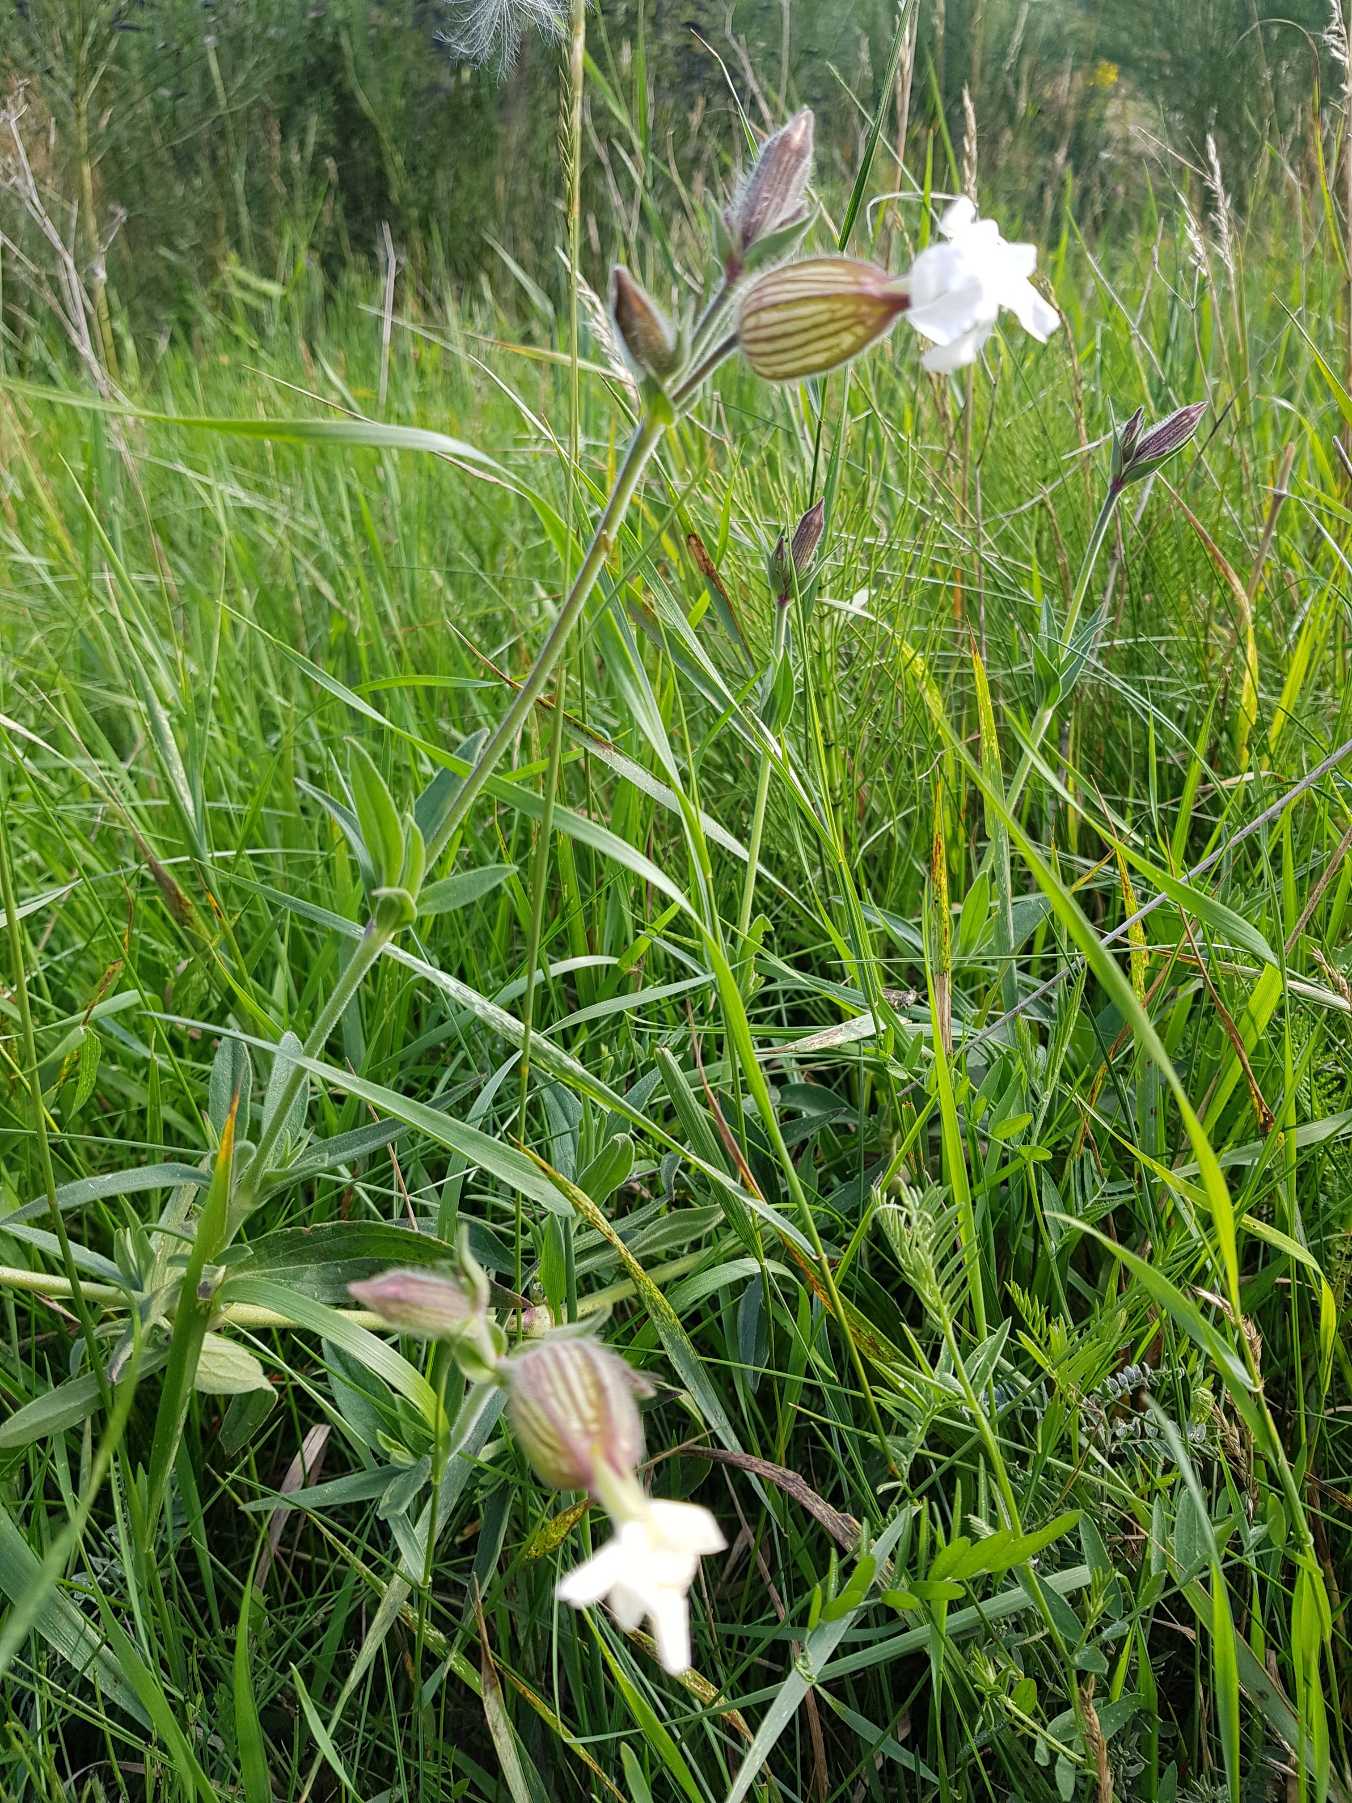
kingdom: Plantae
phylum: Tracheophyta
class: Magnoliopsida
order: Caryophyllales
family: Caryophyllaceae
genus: Silene
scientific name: Silene latifolia
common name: Aftenpragtstjerne
